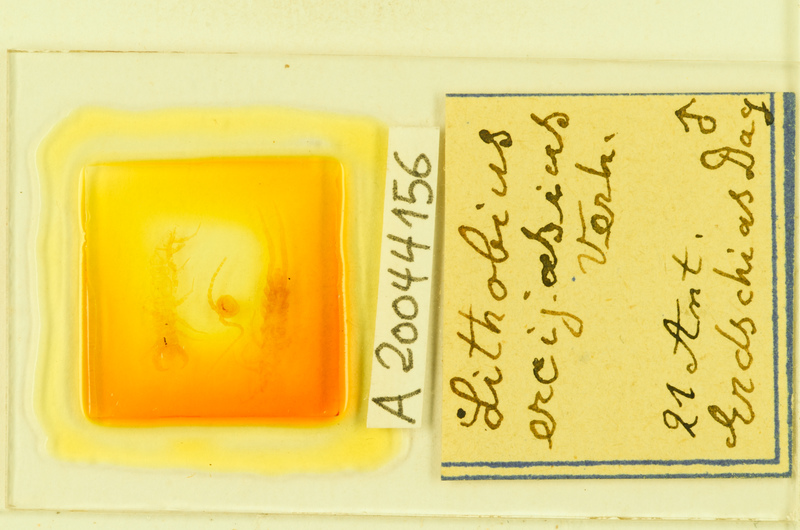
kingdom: Animalia
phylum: Arthropoda
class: Chilopoda
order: Lithobiomorpha
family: Lithobiidae
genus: Lithobius
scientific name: Lithobius crassipes
